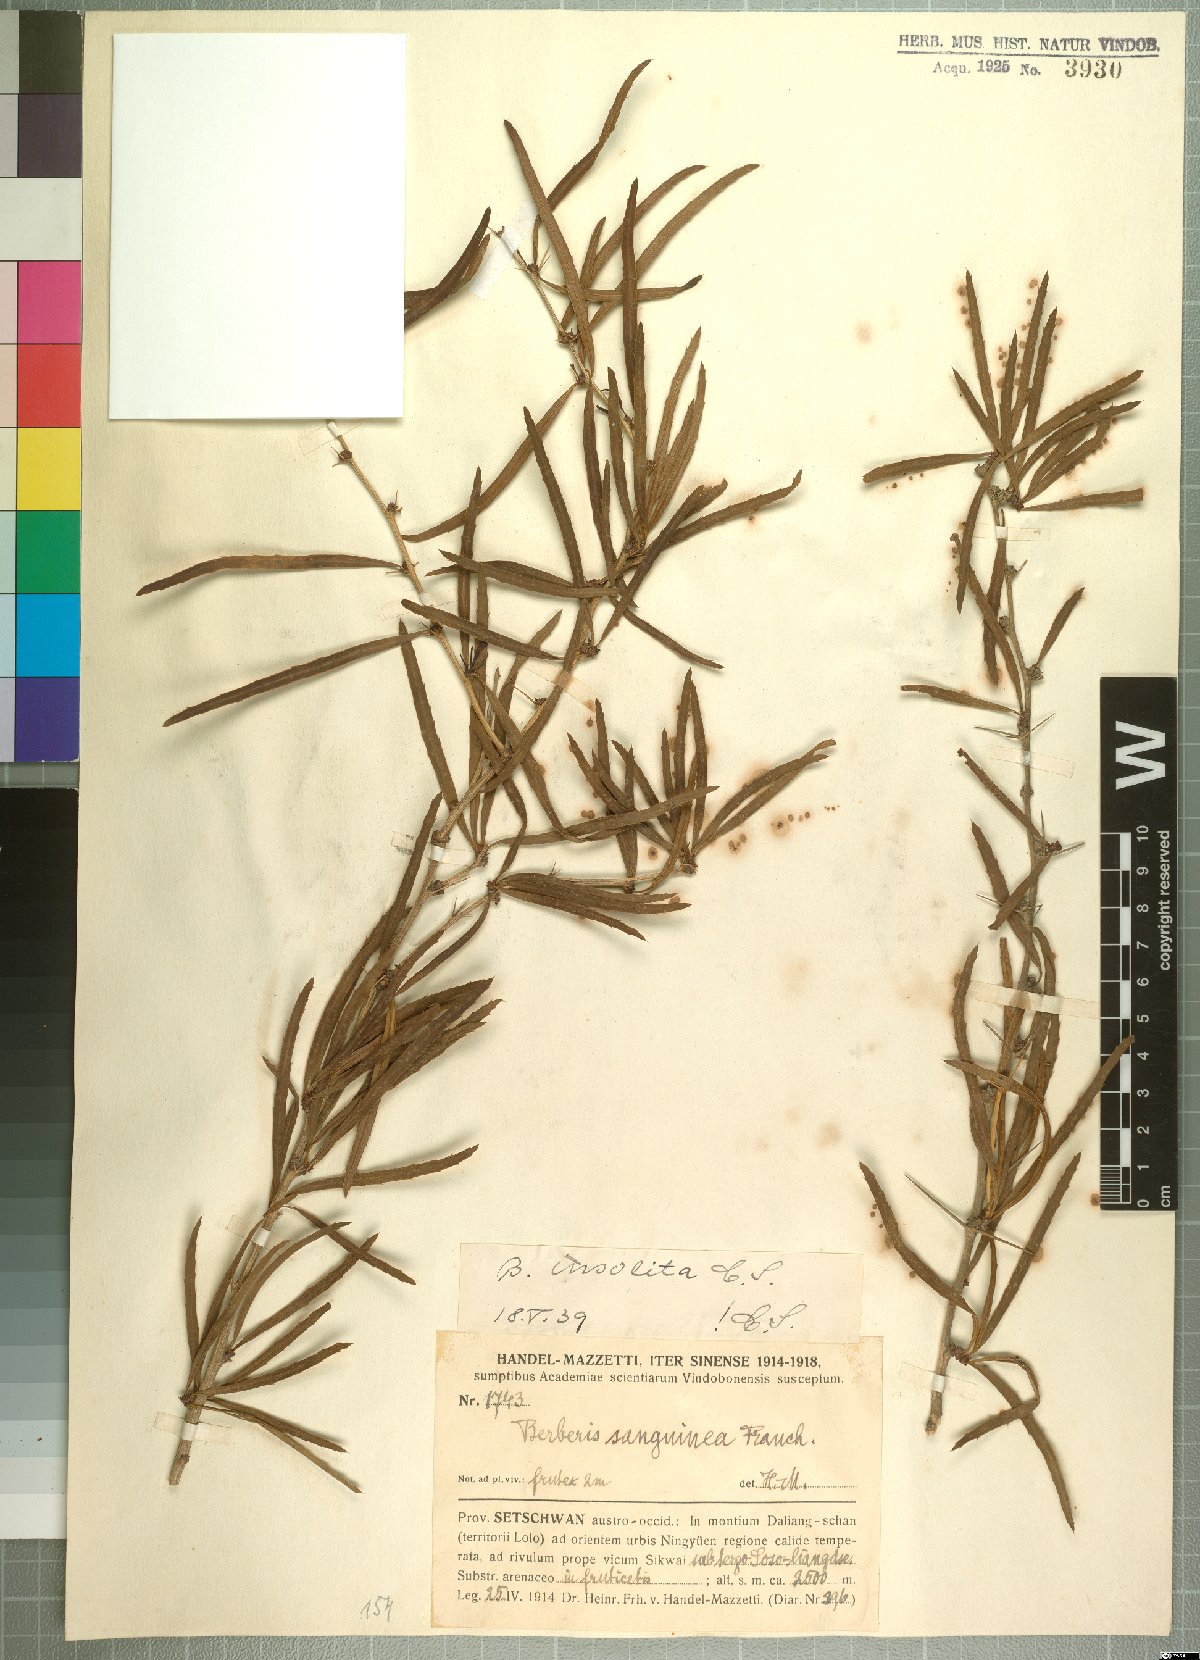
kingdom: Plantae
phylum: Tracheophyta
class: Magnoliopsida
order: Ranunculales
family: Berberidaceae
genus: Berberis
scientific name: Berberis insolita
